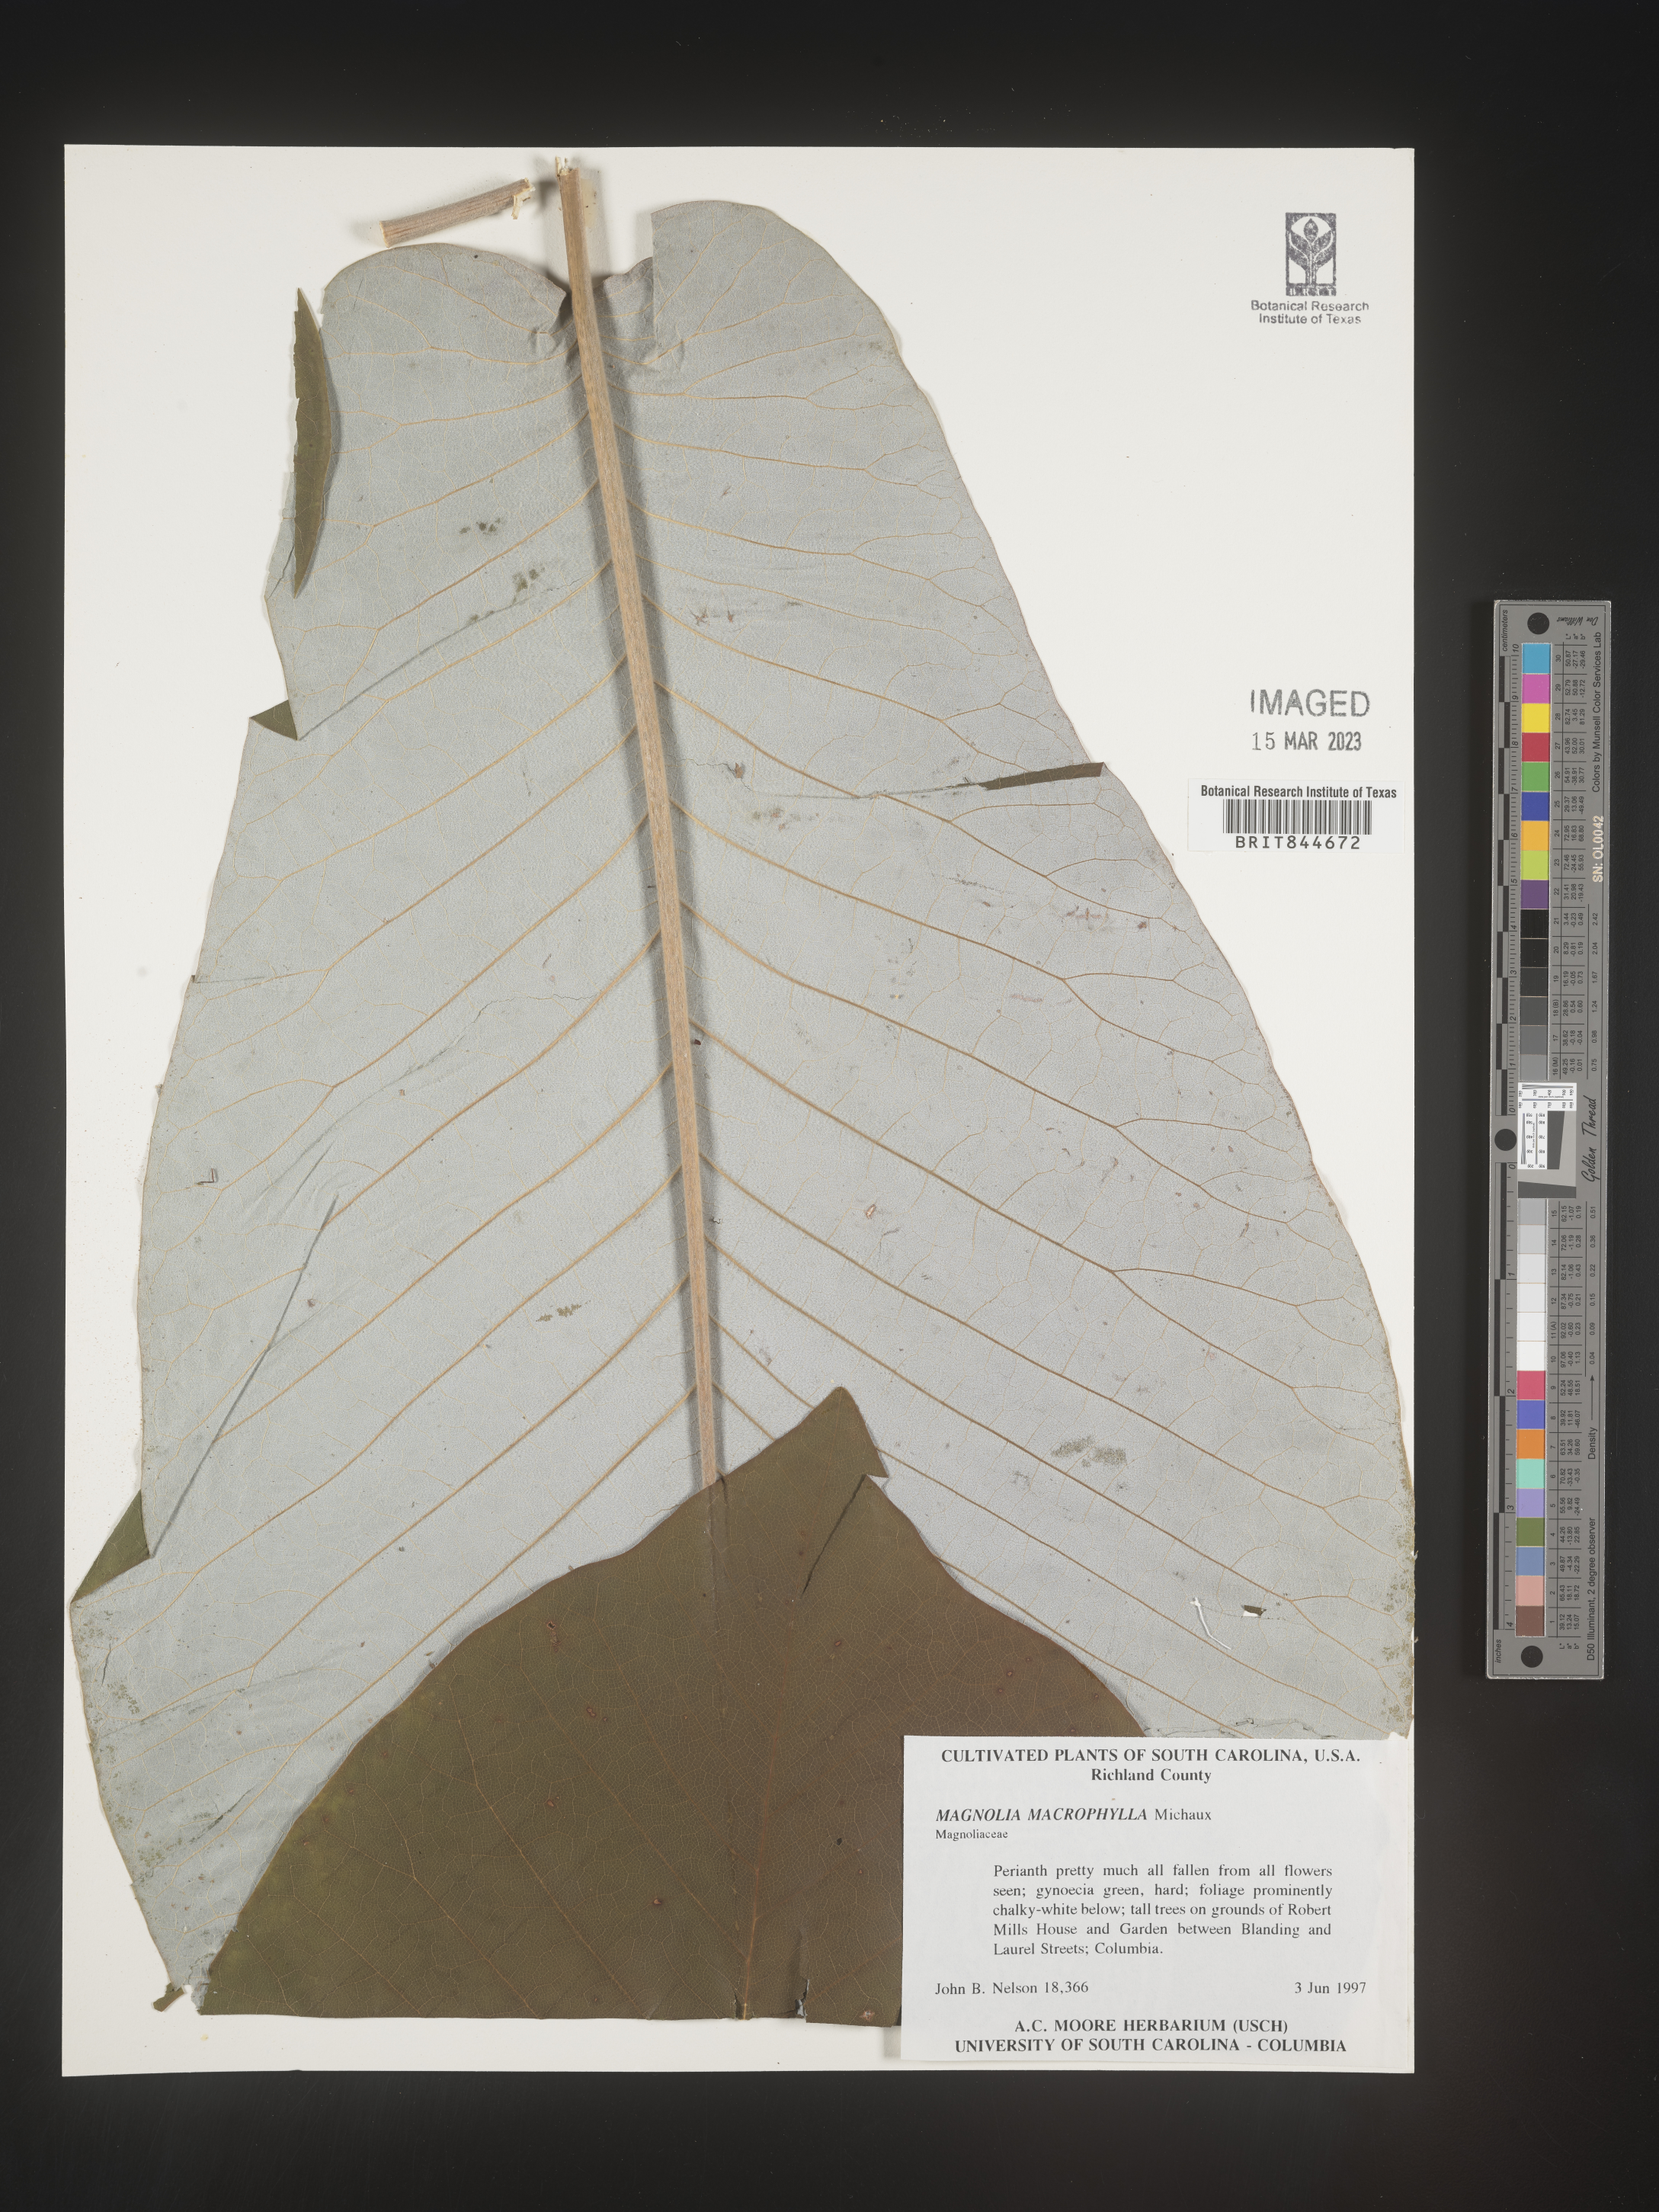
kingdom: Plantae
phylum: Tracheophyta
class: Magnoliopsida
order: Magnoliales
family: Magnoliaceae
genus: Magnolia
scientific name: Magnolia macrophylla
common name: Big-leaf magnolia
